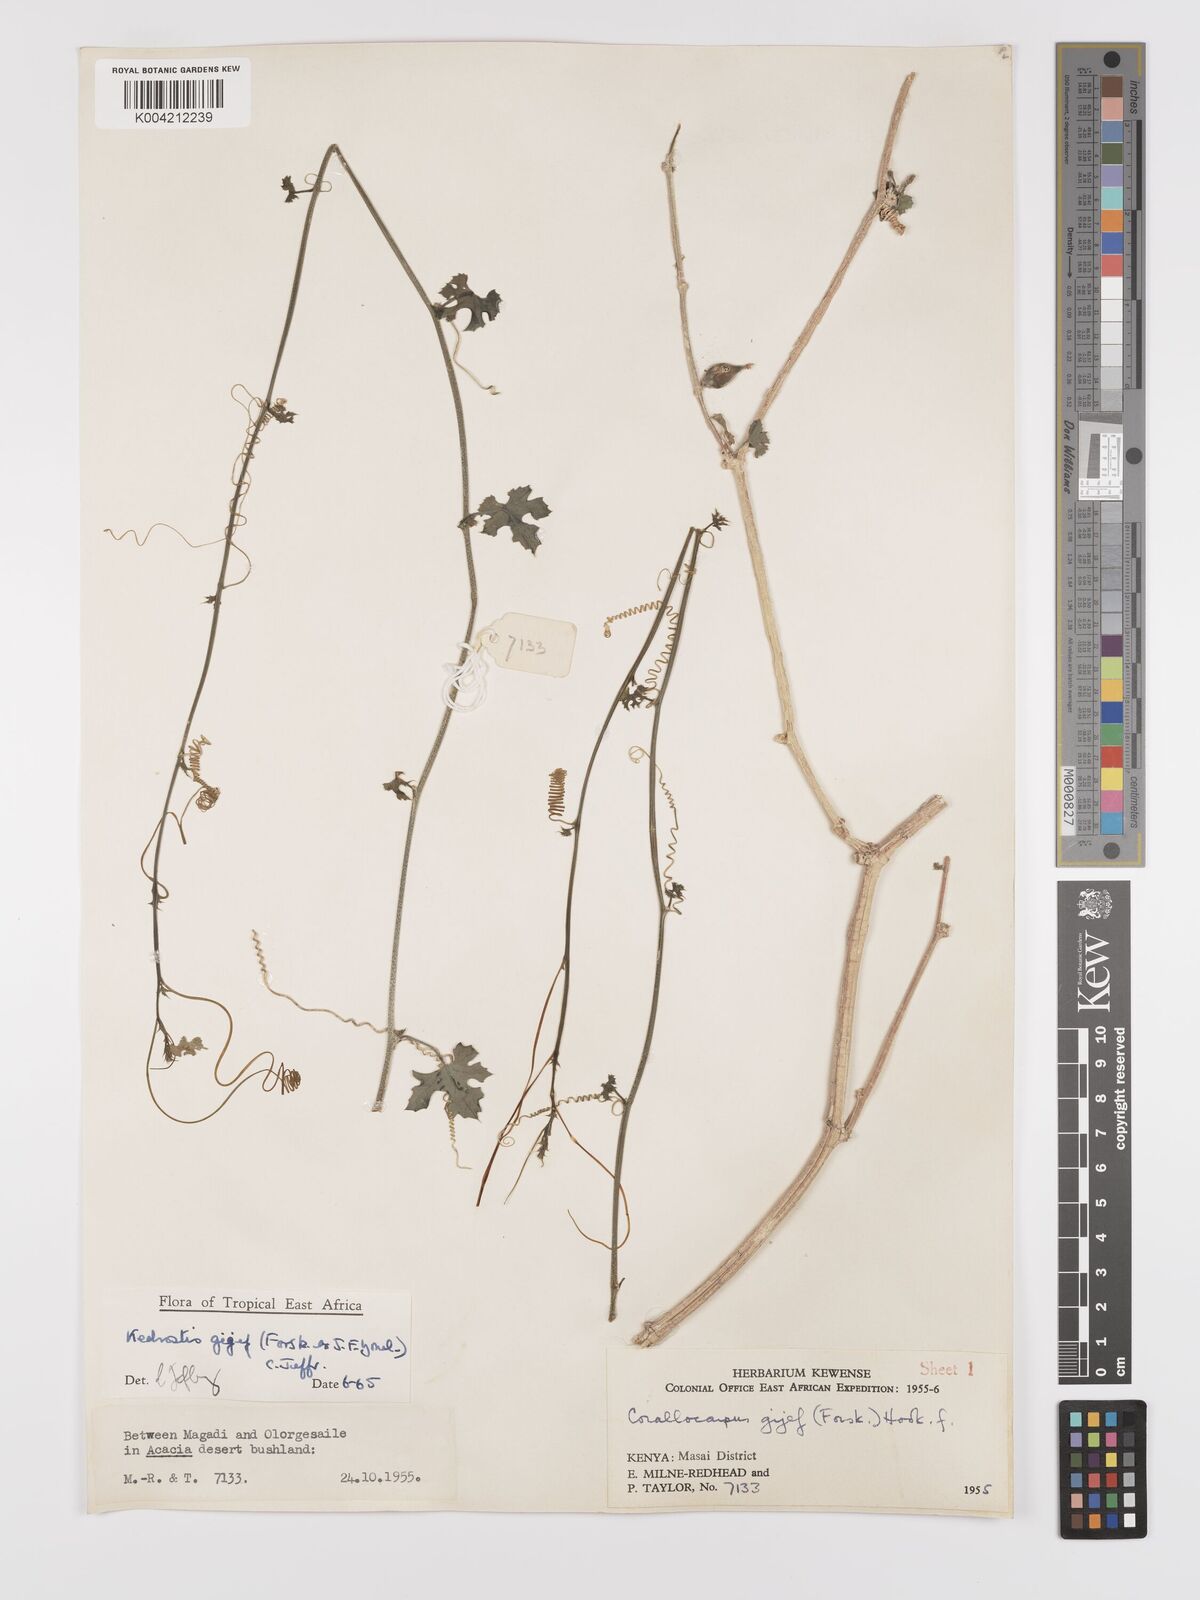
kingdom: Plantae
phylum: Tracheophyta
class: Magnoliopsida
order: Cucurbitales
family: Cucurbitaceae
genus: Kedrostis
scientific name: Kedrostis gijef
